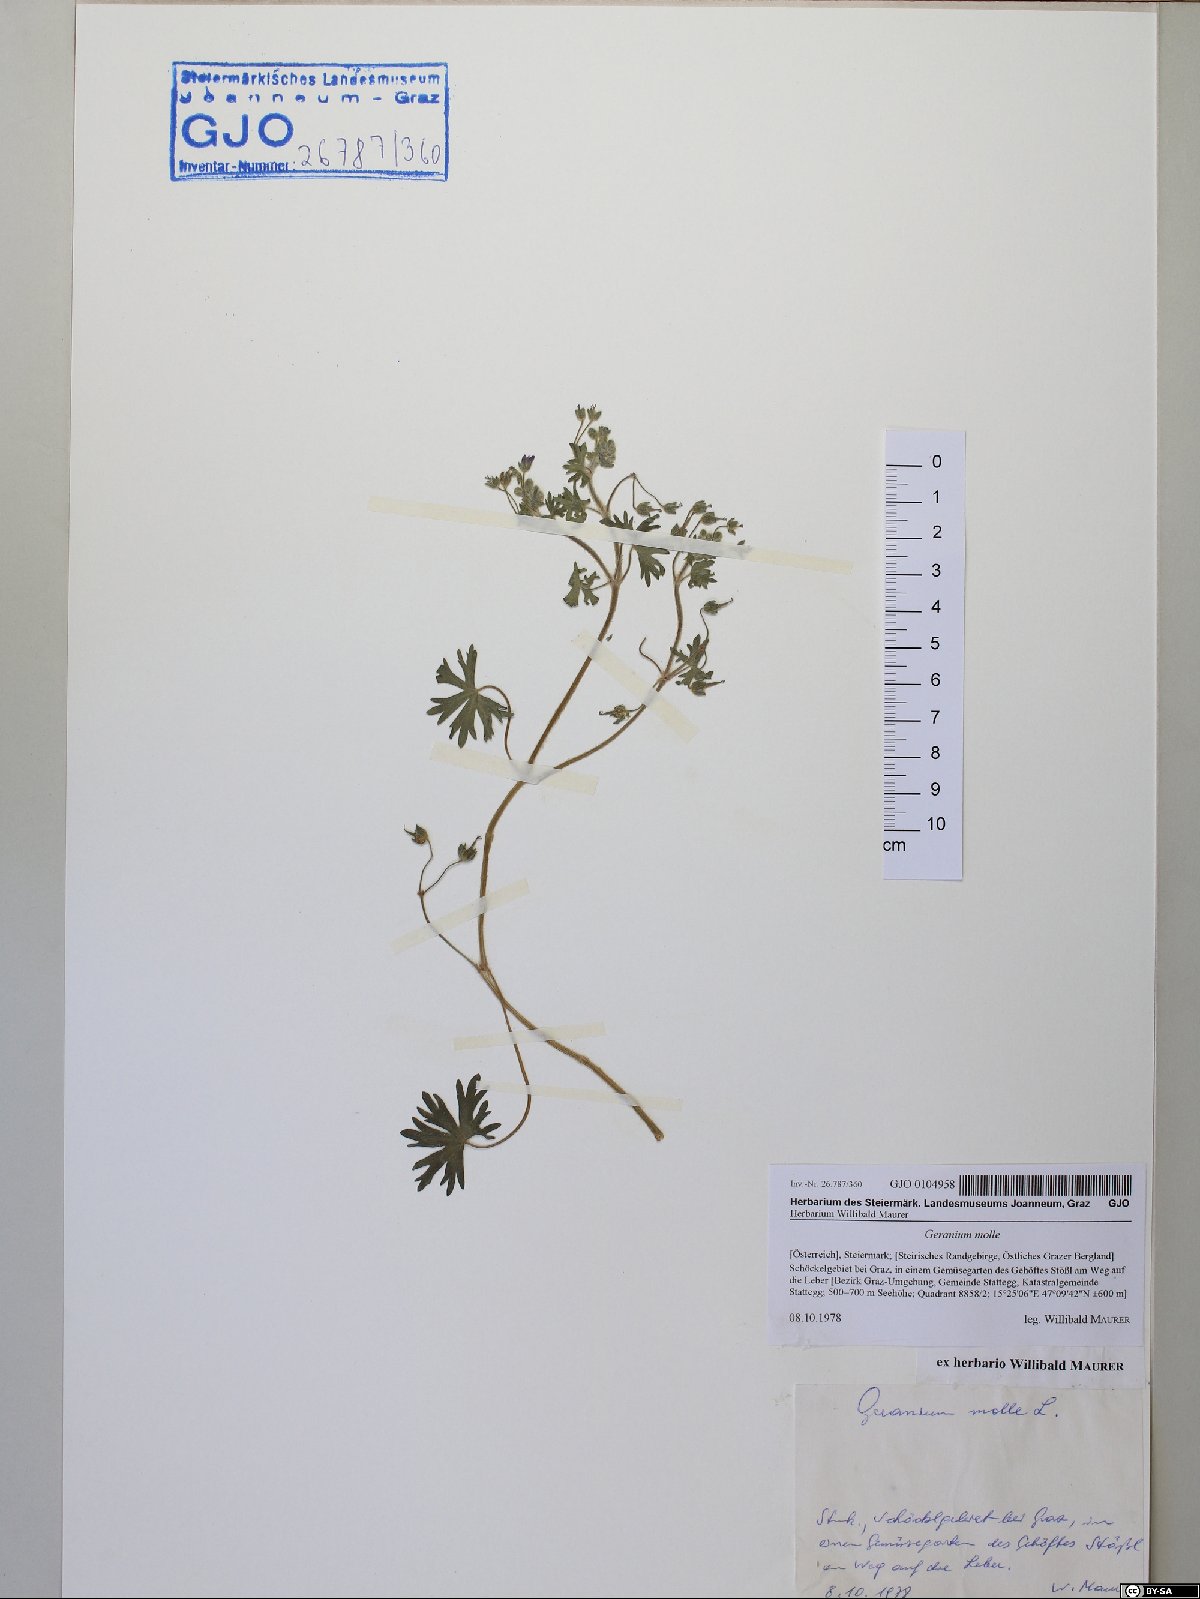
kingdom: Plantae
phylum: Tracheophyta
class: Magnoliopsida
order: Geraniales
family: Geraniaceae
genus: Geranium
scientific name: Geranium molle
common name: Dove's-foot crane's-bill
